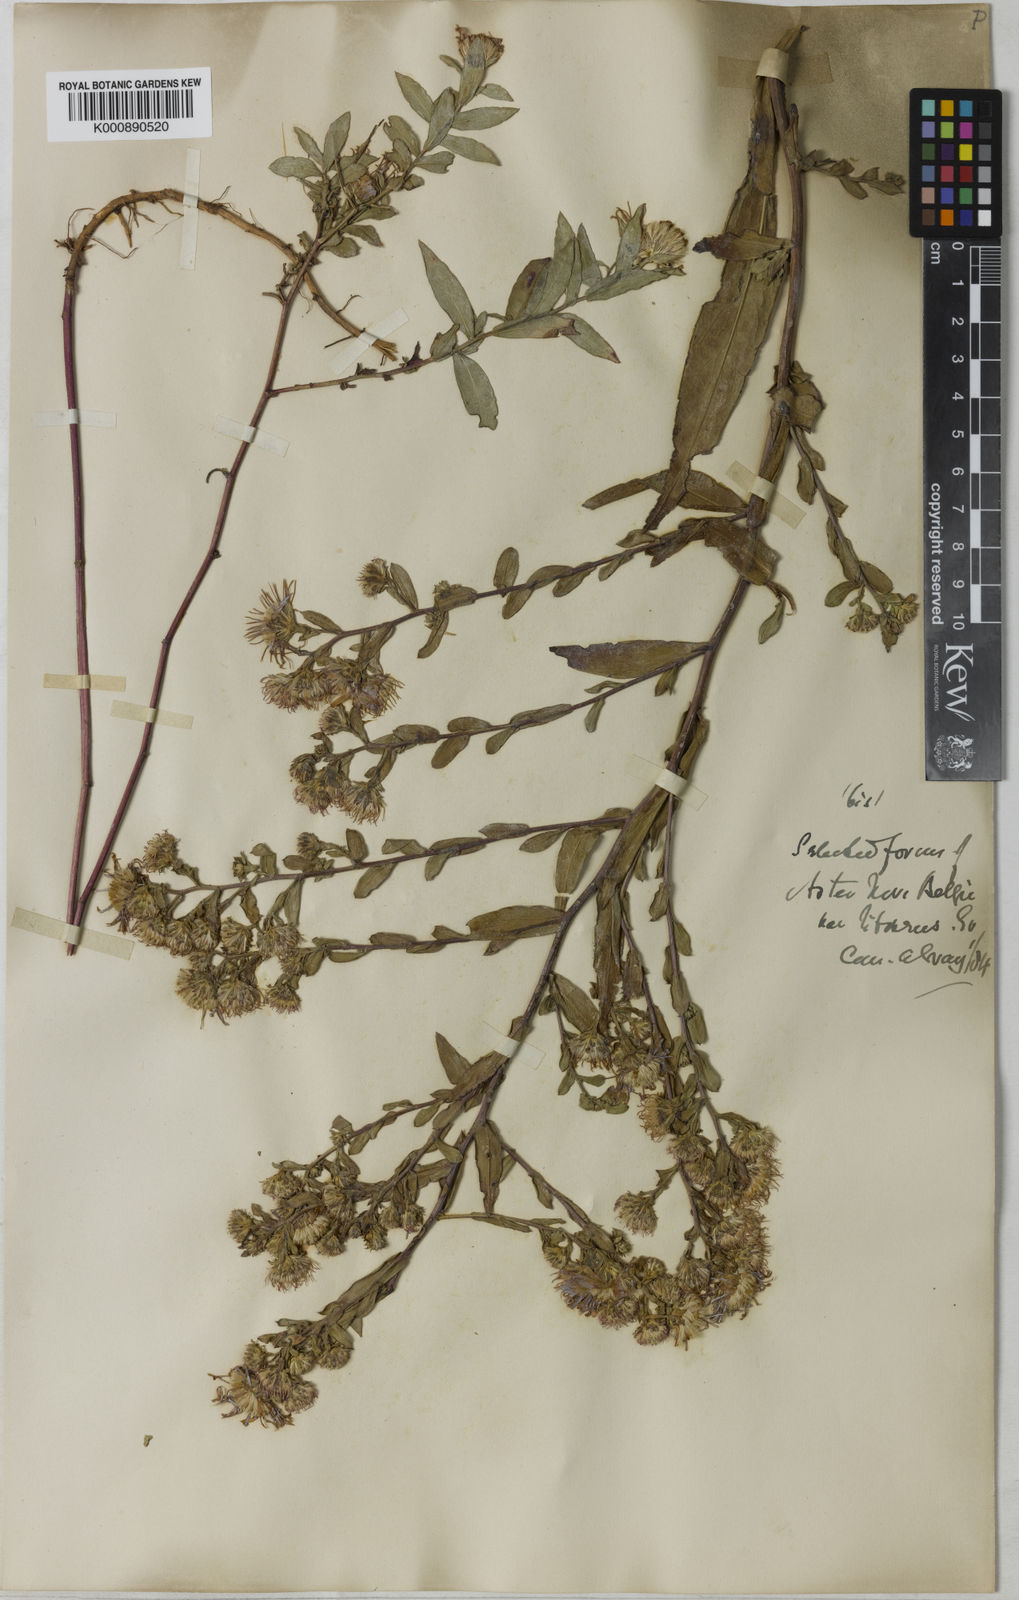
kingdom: Plantae
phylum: Tracheophyta
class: Magnoliopsida
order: Asterales
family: Asteraceae
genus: Symphyotrichum
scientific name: Symphyotrichum praealtum
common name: Willow aster
